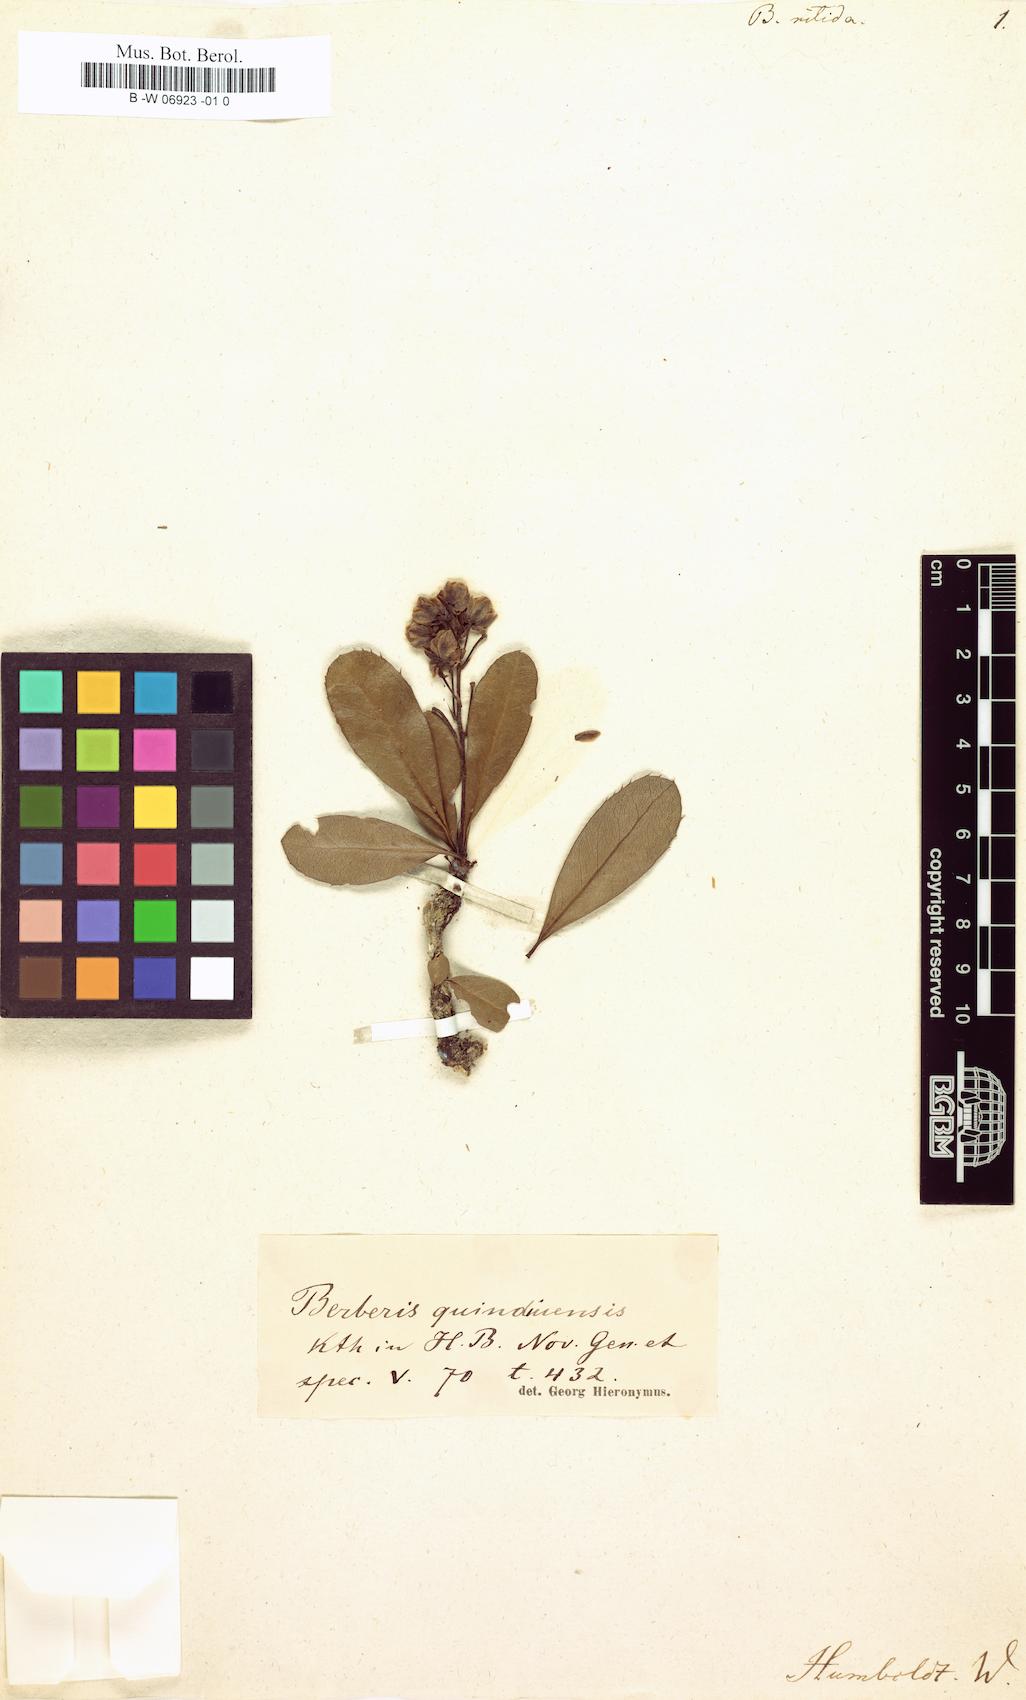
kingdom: Plantae
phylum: Tracheophyta
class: Magnoliopsida
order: Ranunculales
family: Berberidaceae
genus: Berberis
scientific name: Berberis quinduensis
